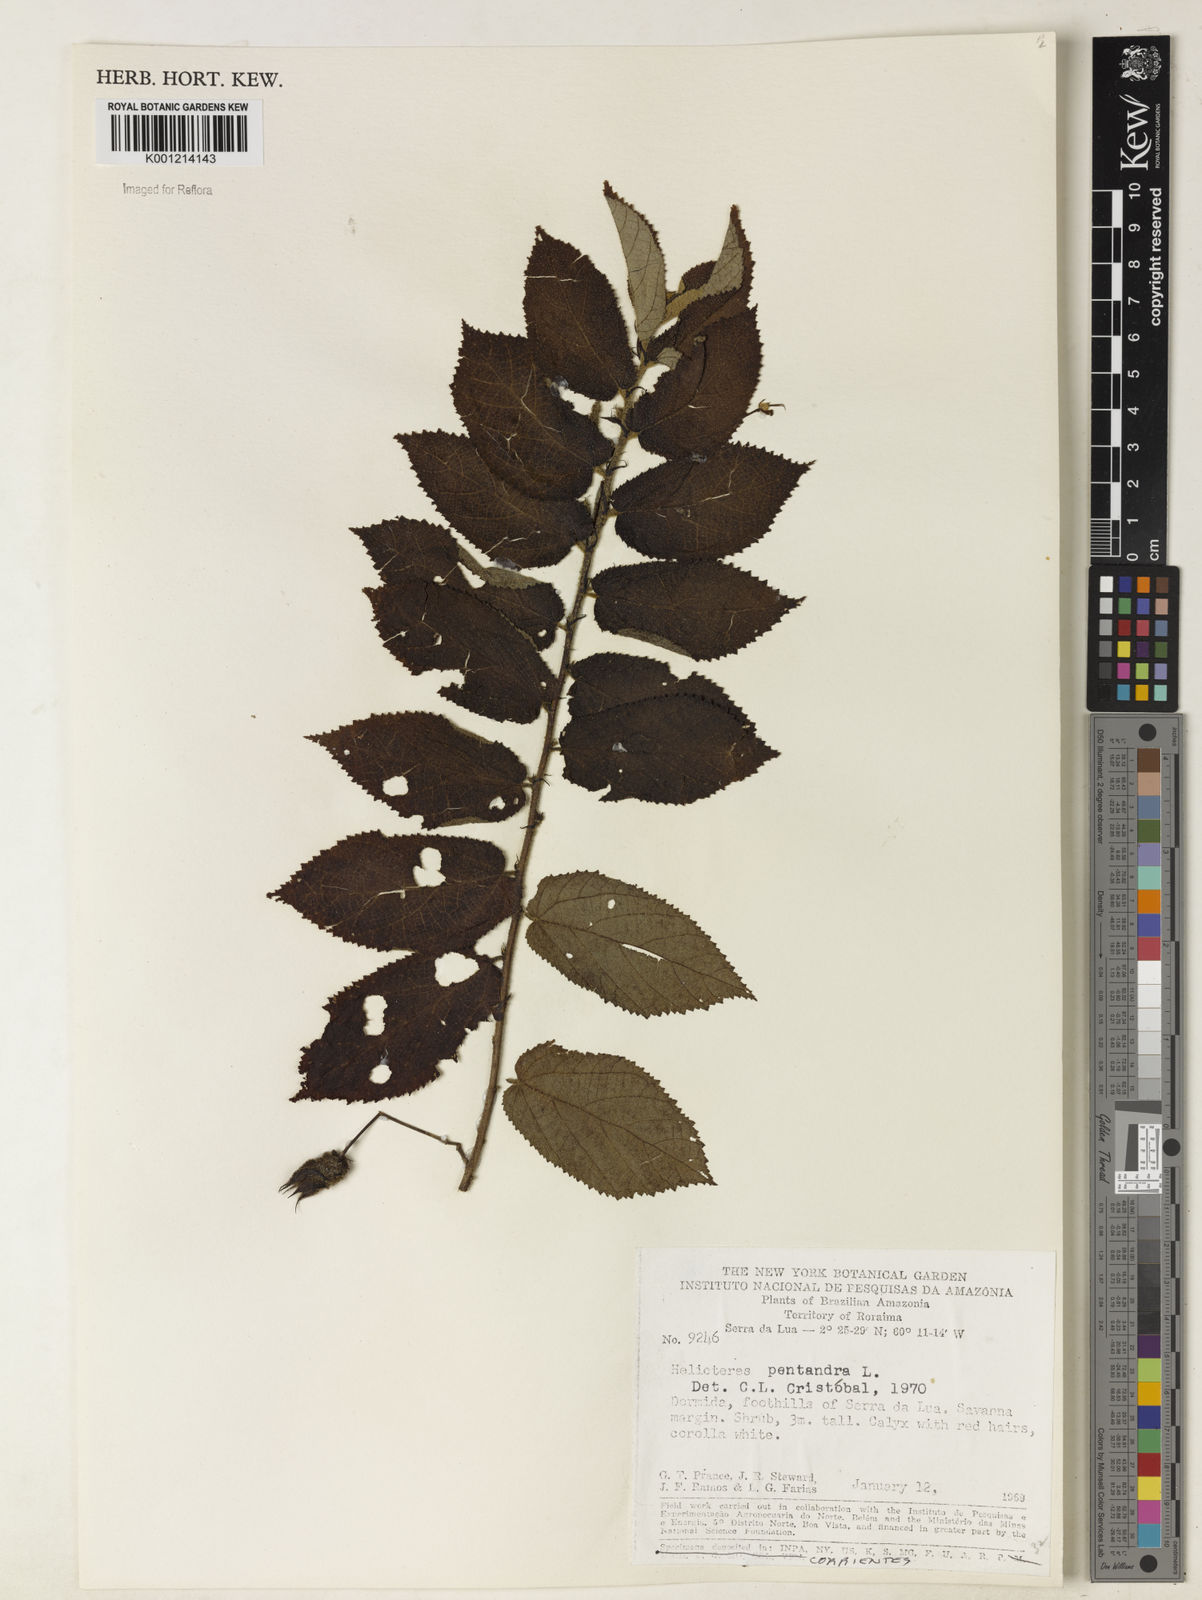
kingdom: Plantae
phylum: Tracheophyta
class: Magnoliopsida
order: Malvales
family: Malvaceae
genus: Helicteres
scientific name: Helicteres pentandra
